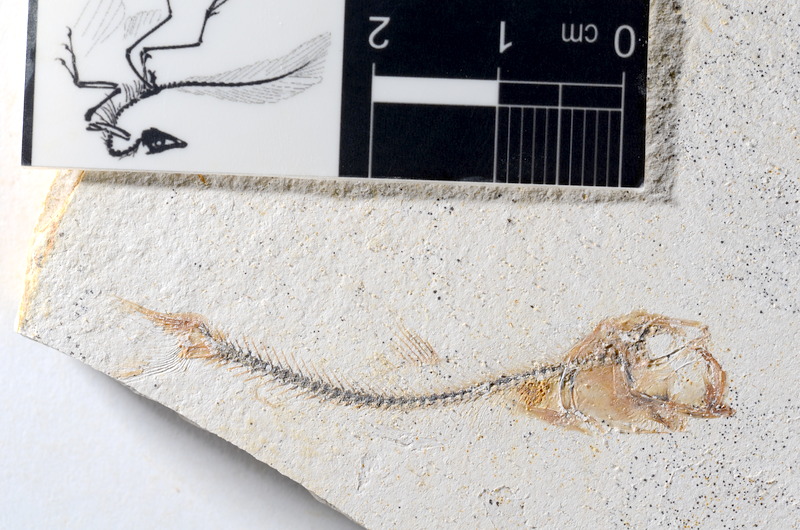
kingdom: Animalia
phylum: Chordata
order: Salmoniformes
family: Orthogonikleithridae
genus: Orthogonikleithrus
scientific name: Orthogonikleithrus hoelli
